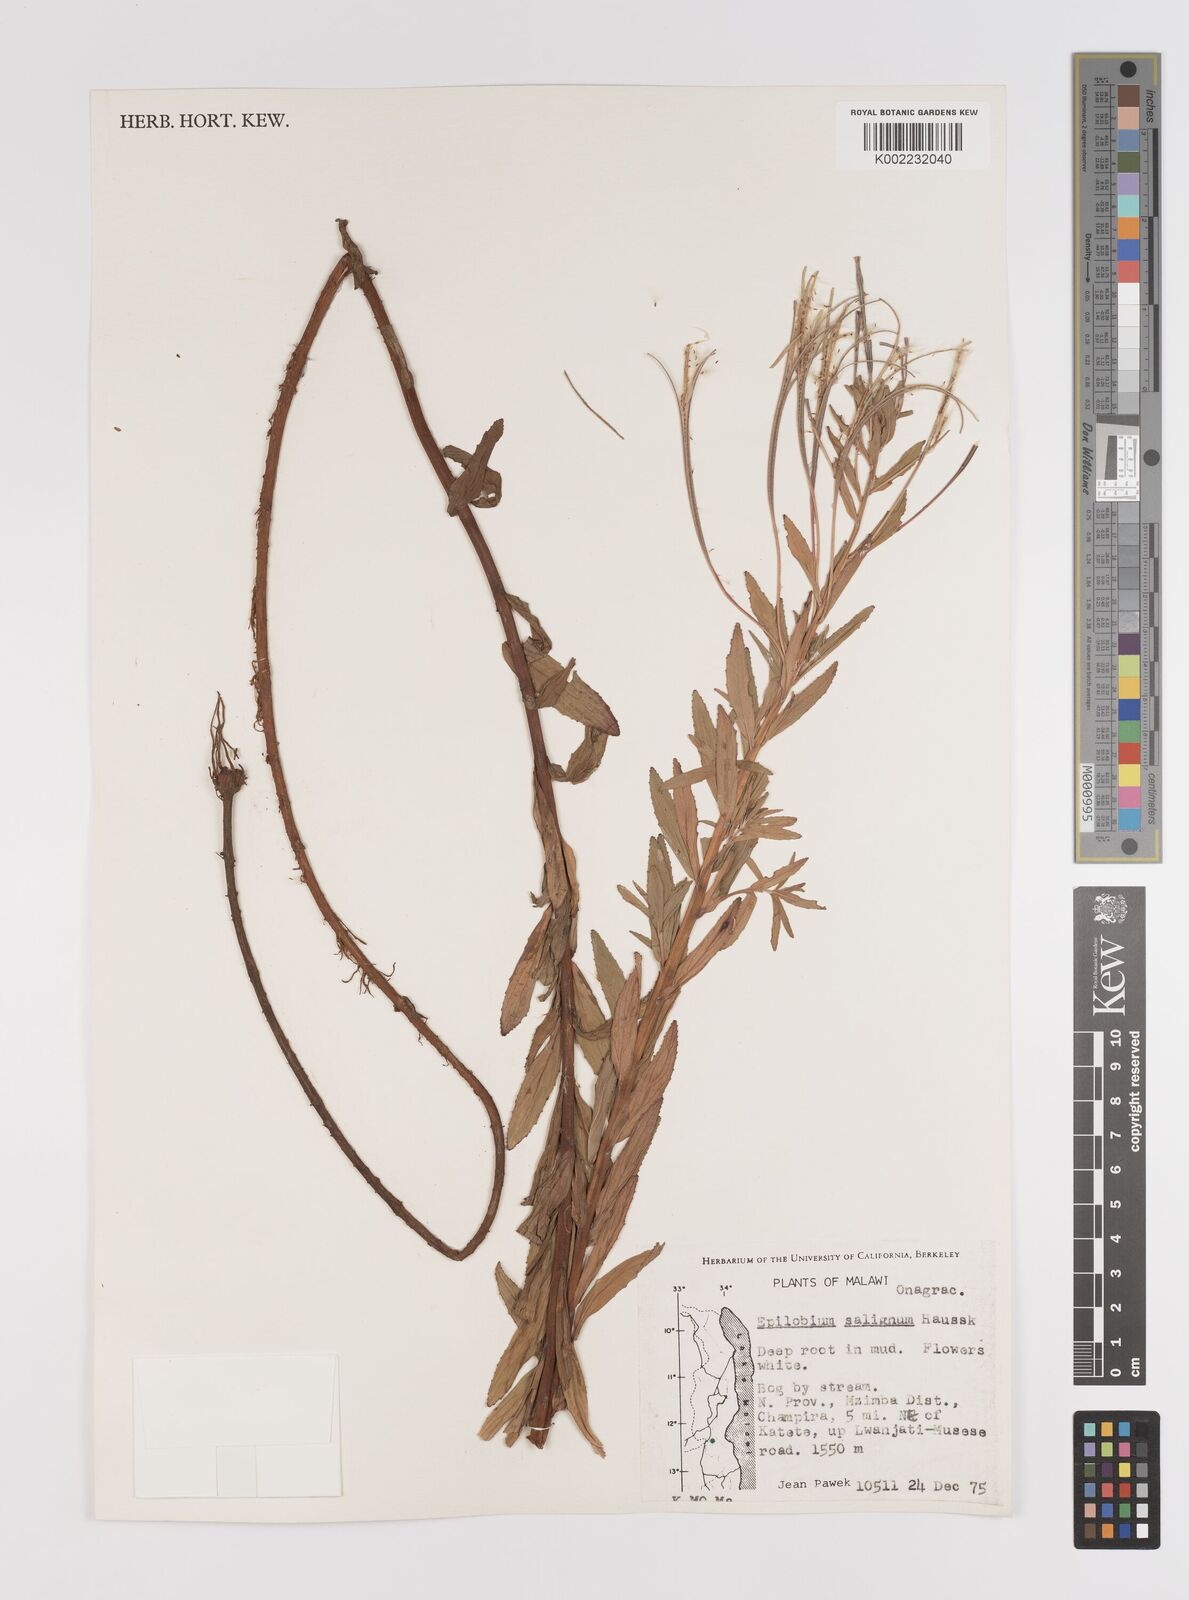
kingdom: Plantae
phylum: Tracheophyta
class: Magnoliopsida
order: Myrtales
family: Onagraceae
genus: Epilobium
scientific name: Epilobium salignum
